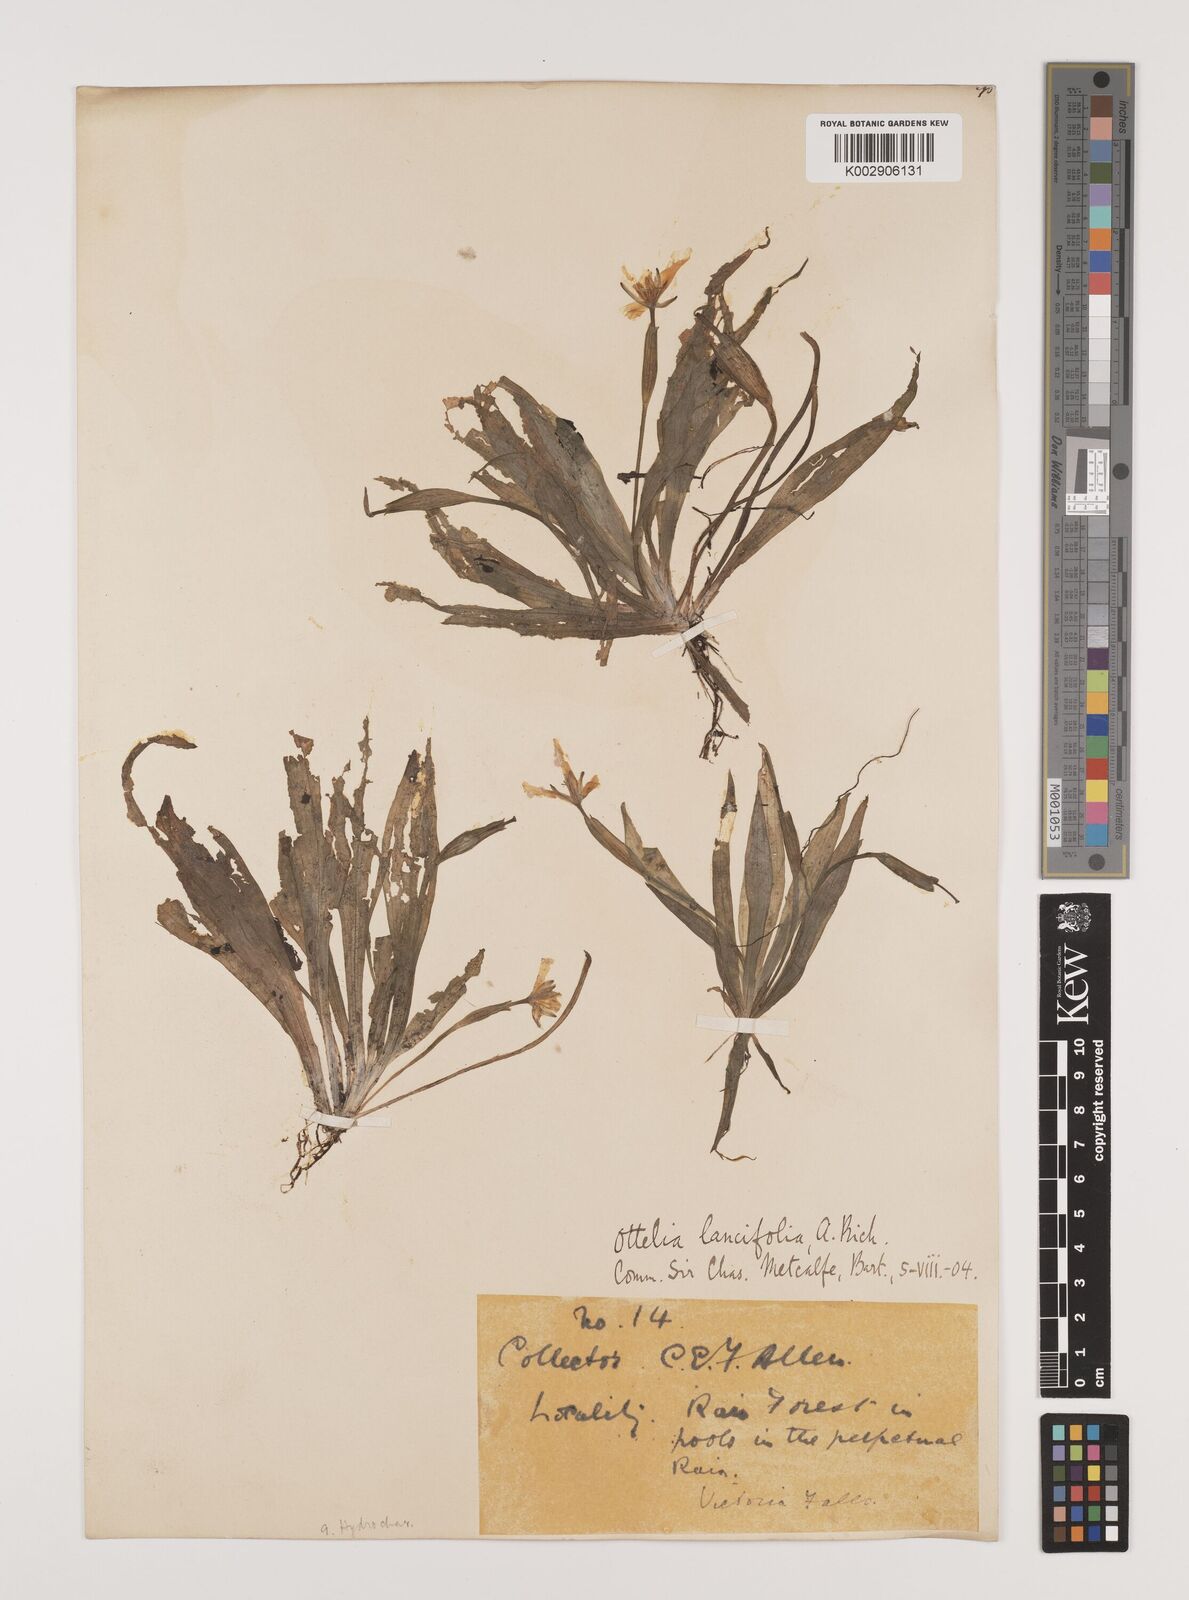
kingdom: Plantae
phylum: Tracheophyta
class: Liliopsida
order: Alismatales
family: Hydrocharitaceae
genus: Ottelia
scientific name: Ottelia ulvifolia
